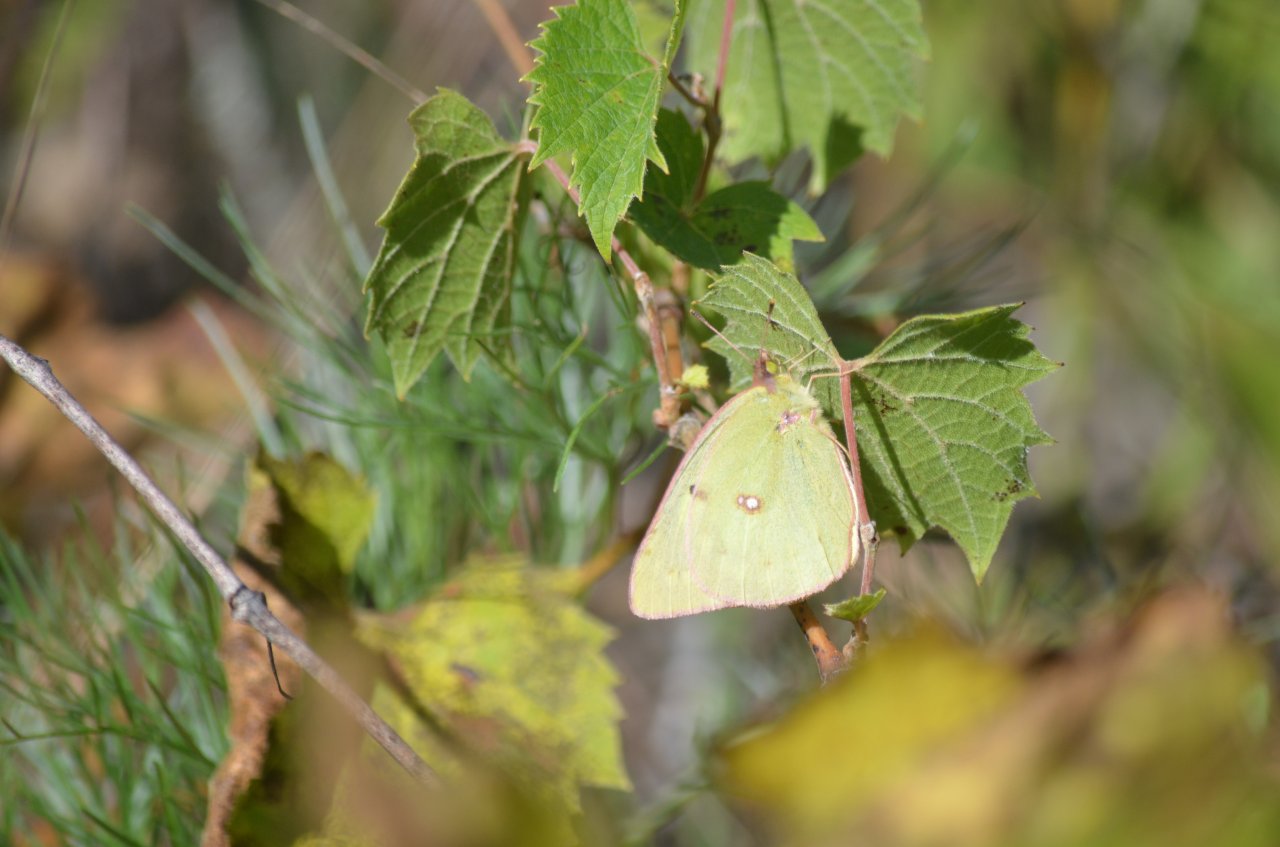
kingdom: Animalia
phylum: Arthropoda
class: Insecta
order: Lepidoptera
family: Pieridae
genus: Colias
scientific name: Colias philodice
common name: Clouded Sulphur
